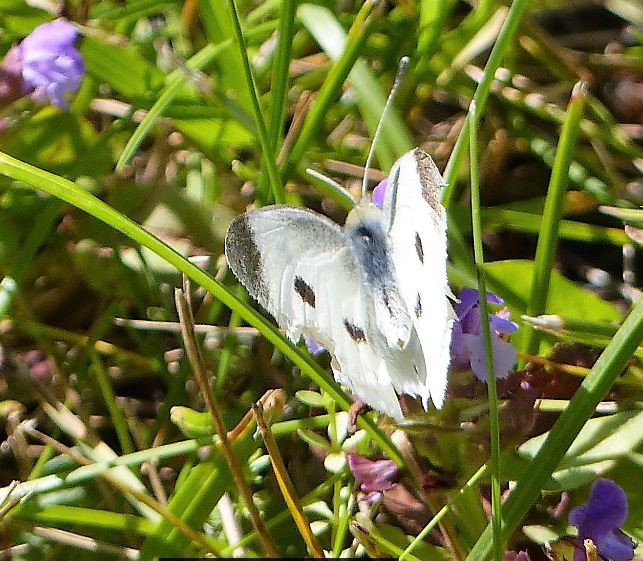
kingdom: Animalia
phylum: Arthropoda
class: Insecta
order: Lepidoptera
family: Pieridae
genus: Pieris
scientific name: Pieris rapae
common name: Cabbage White
